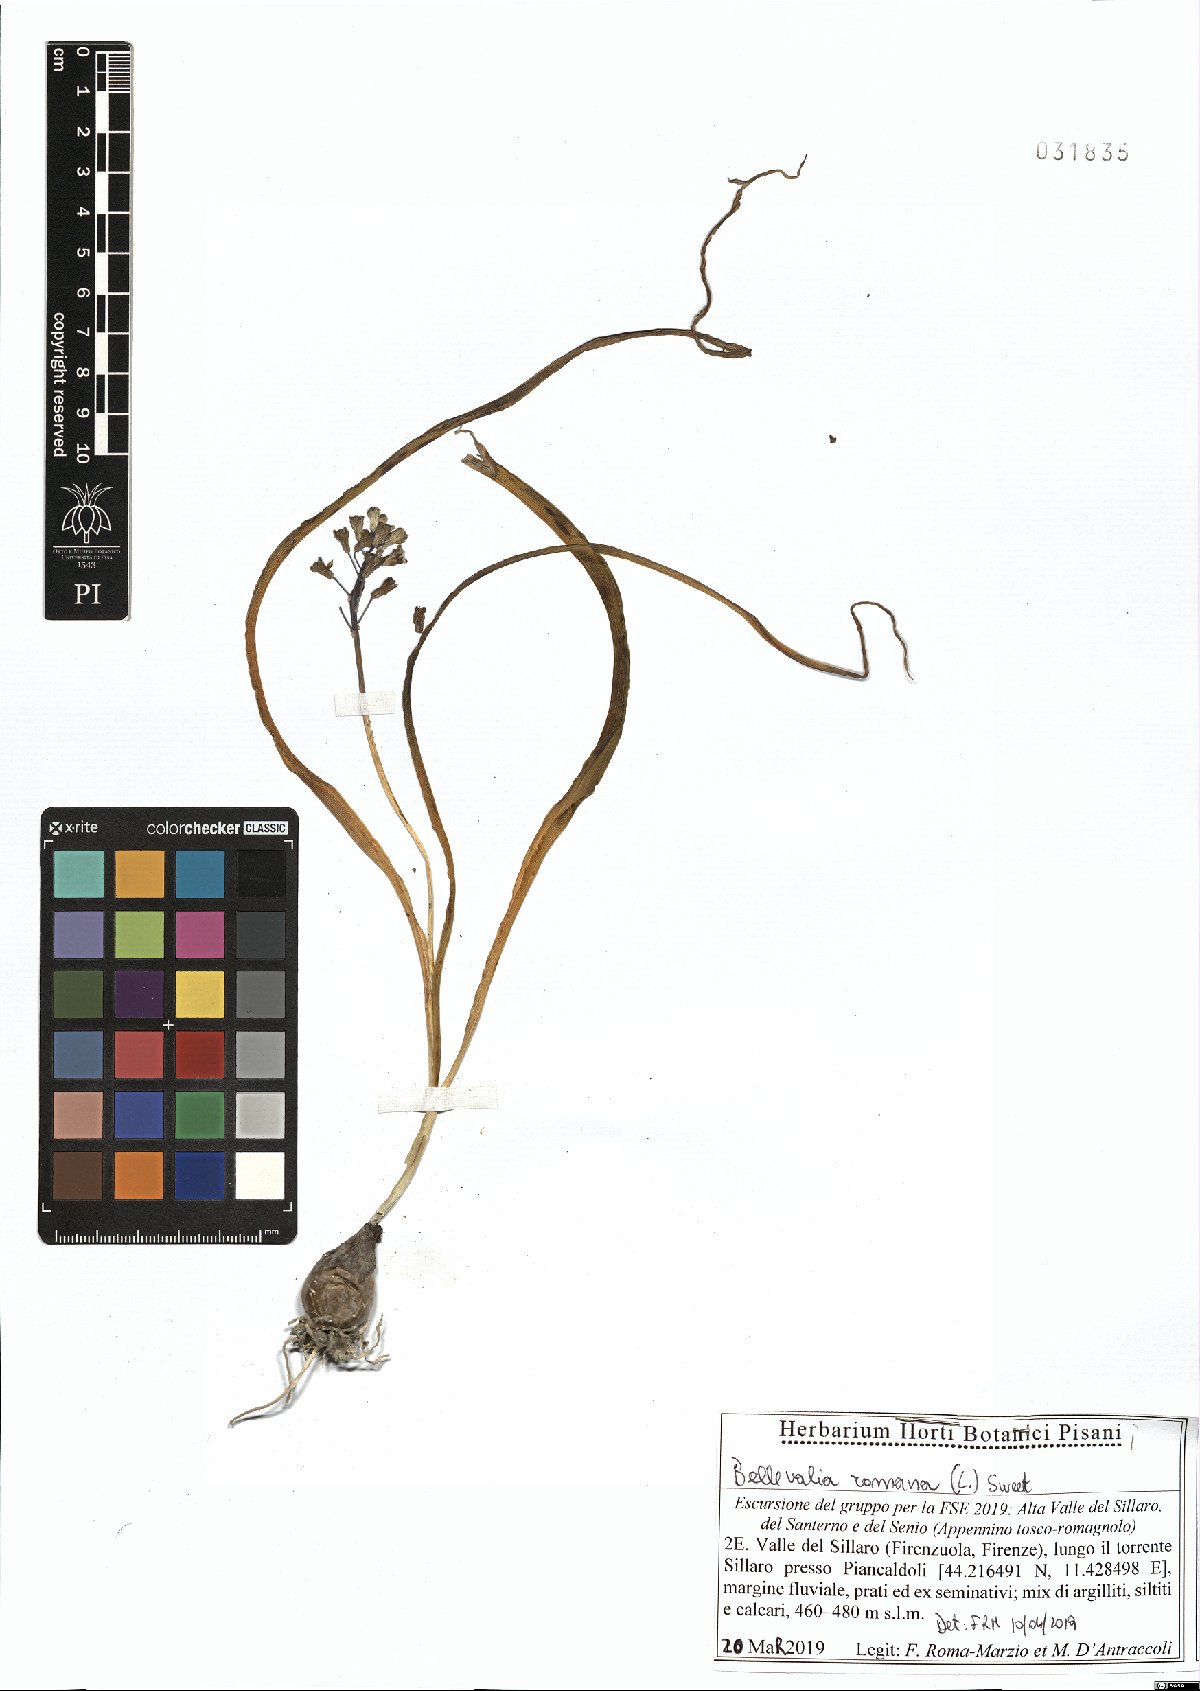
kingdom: Plantae
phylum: Tracheophyta
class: Liliopsida
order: Asparagales
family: Asparagaceae
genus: Bellevalia
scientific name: Bellevalia romana
